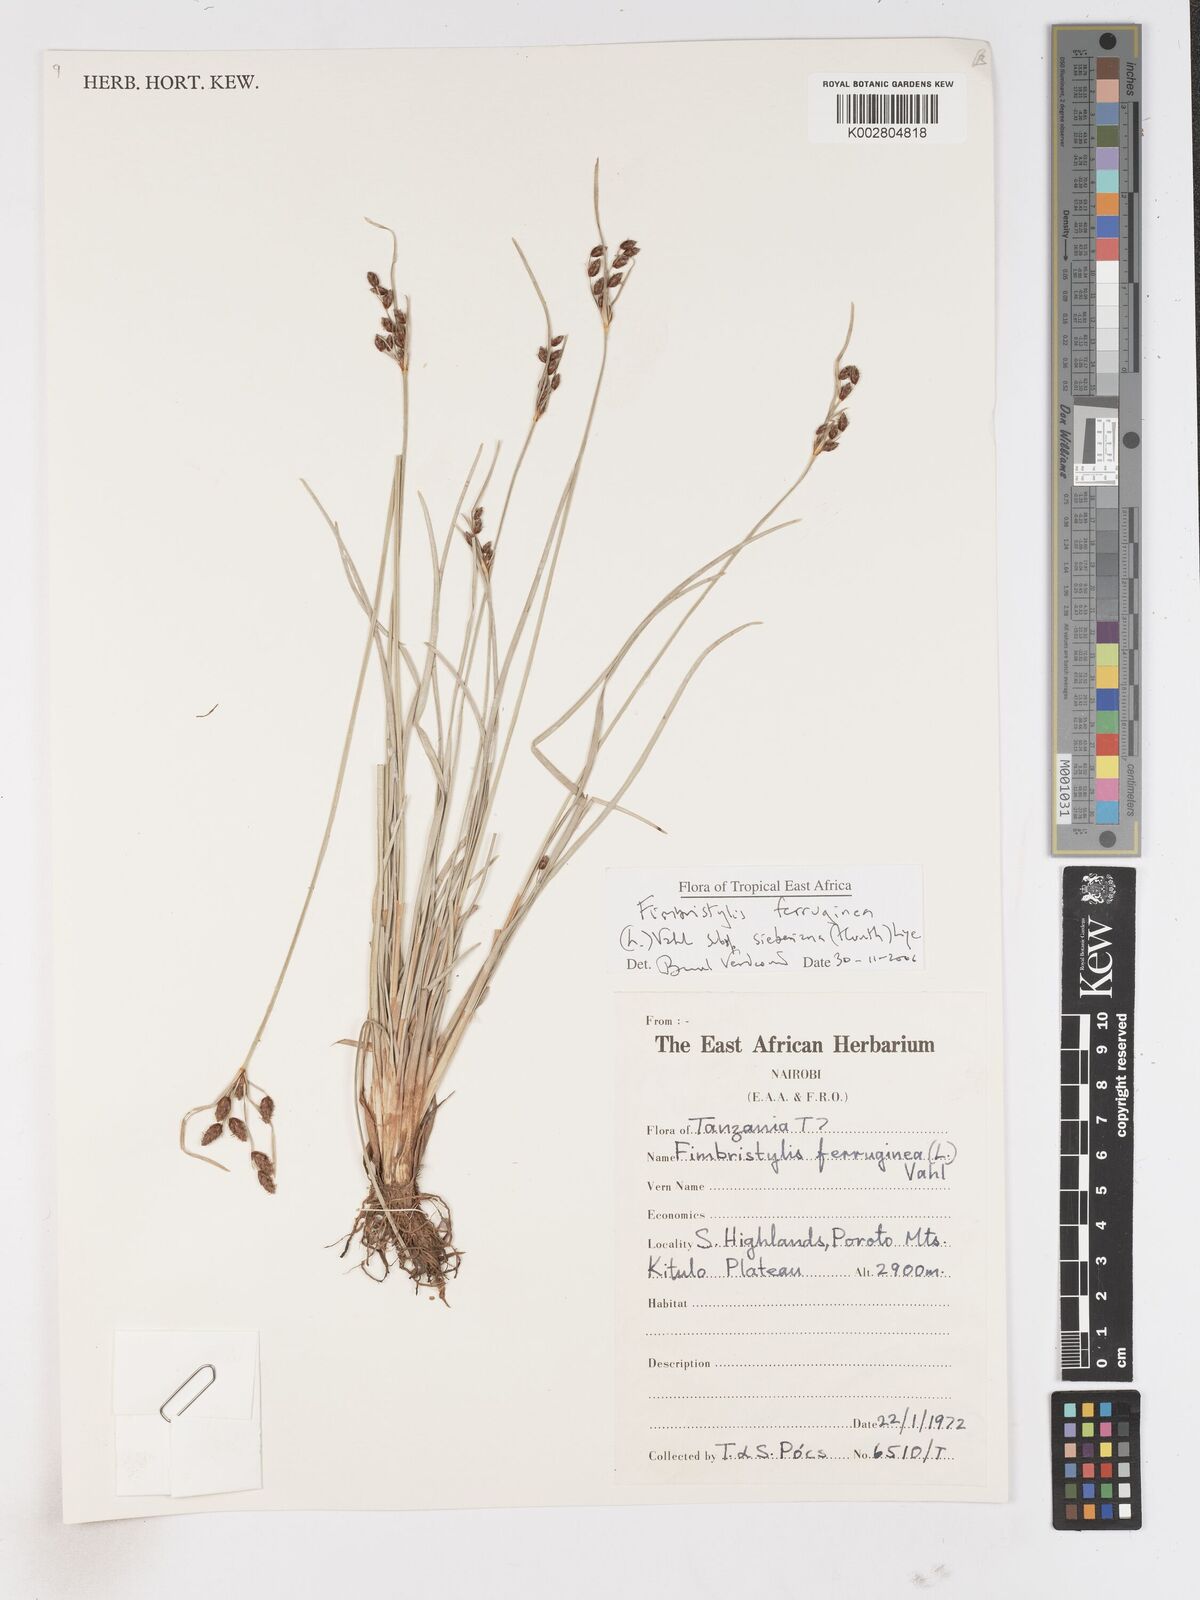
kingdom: Plantae
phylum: Tracheophyta
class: Liliopsida
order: Poales
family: Cyperaceae
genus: Fimbristylis
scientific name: Fimbristylis ferruginea
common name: West indian fimbry
